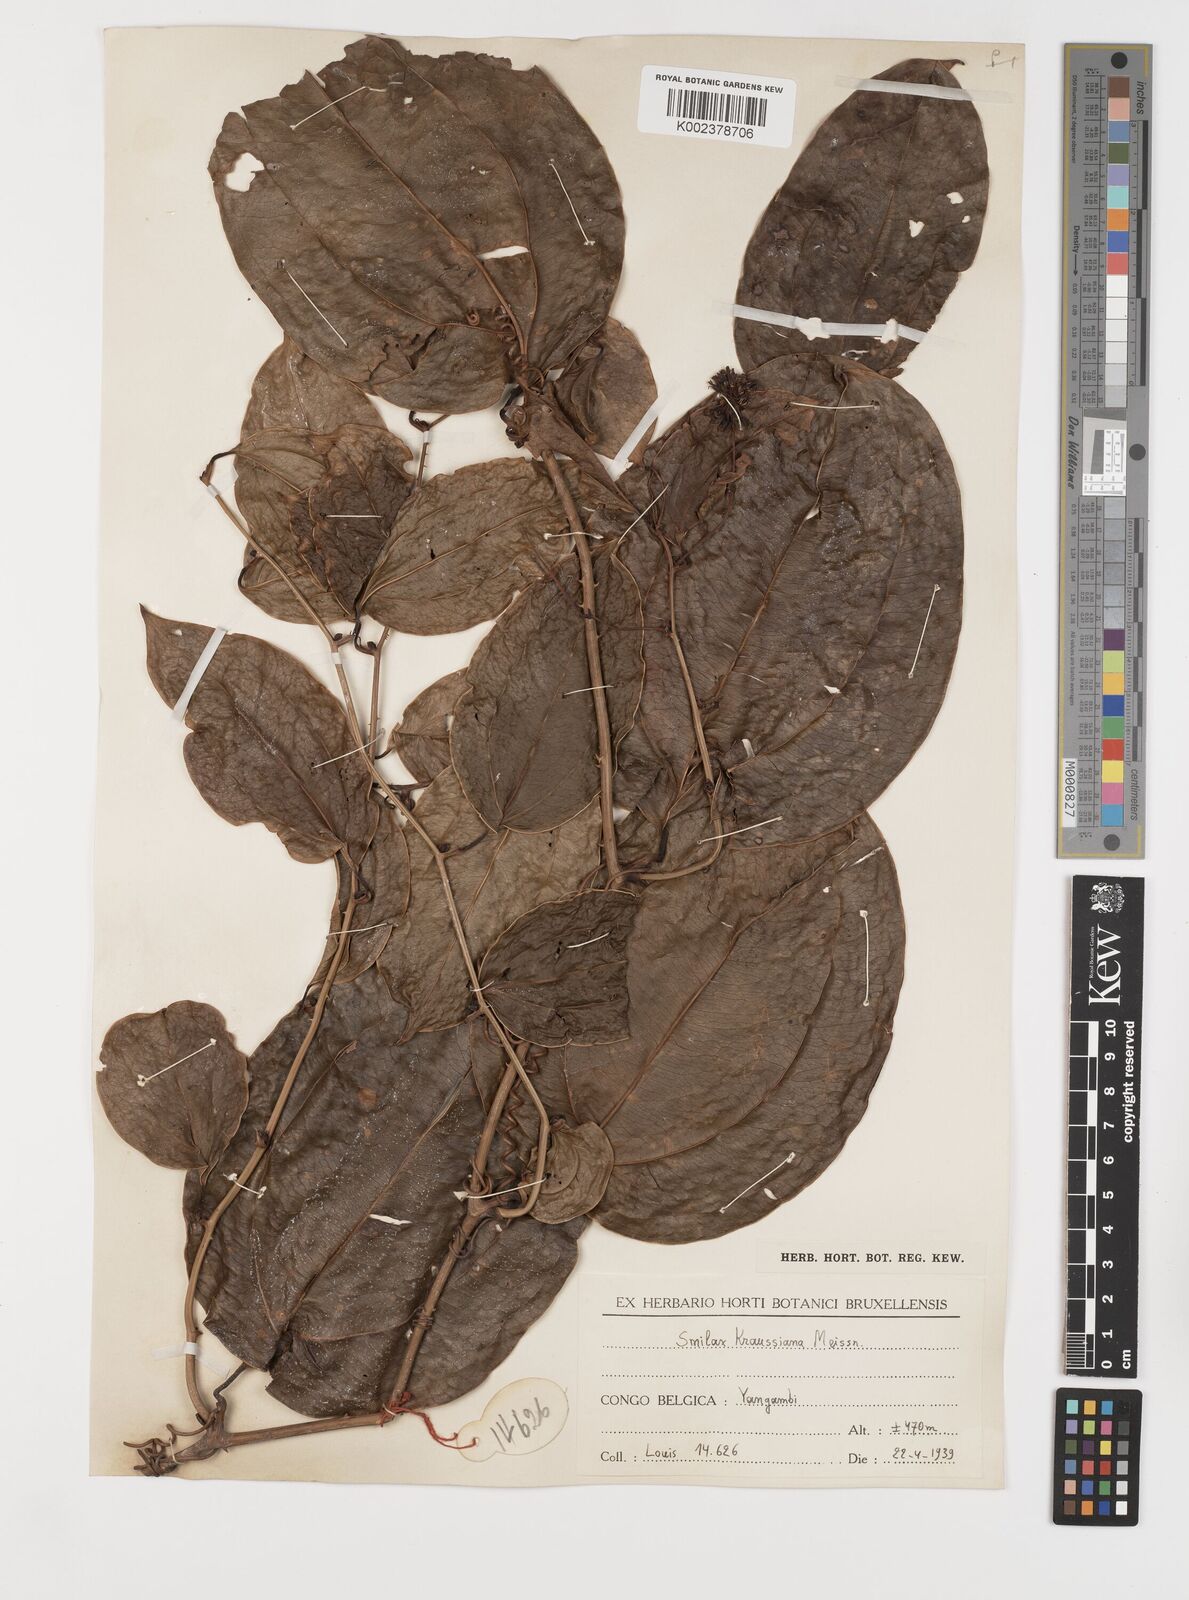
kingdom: Plantae
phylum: Tracheophyta
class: Liliopsida
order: Liliales
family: Smilacaceae
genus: Smilax
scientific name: Smilax anceps
